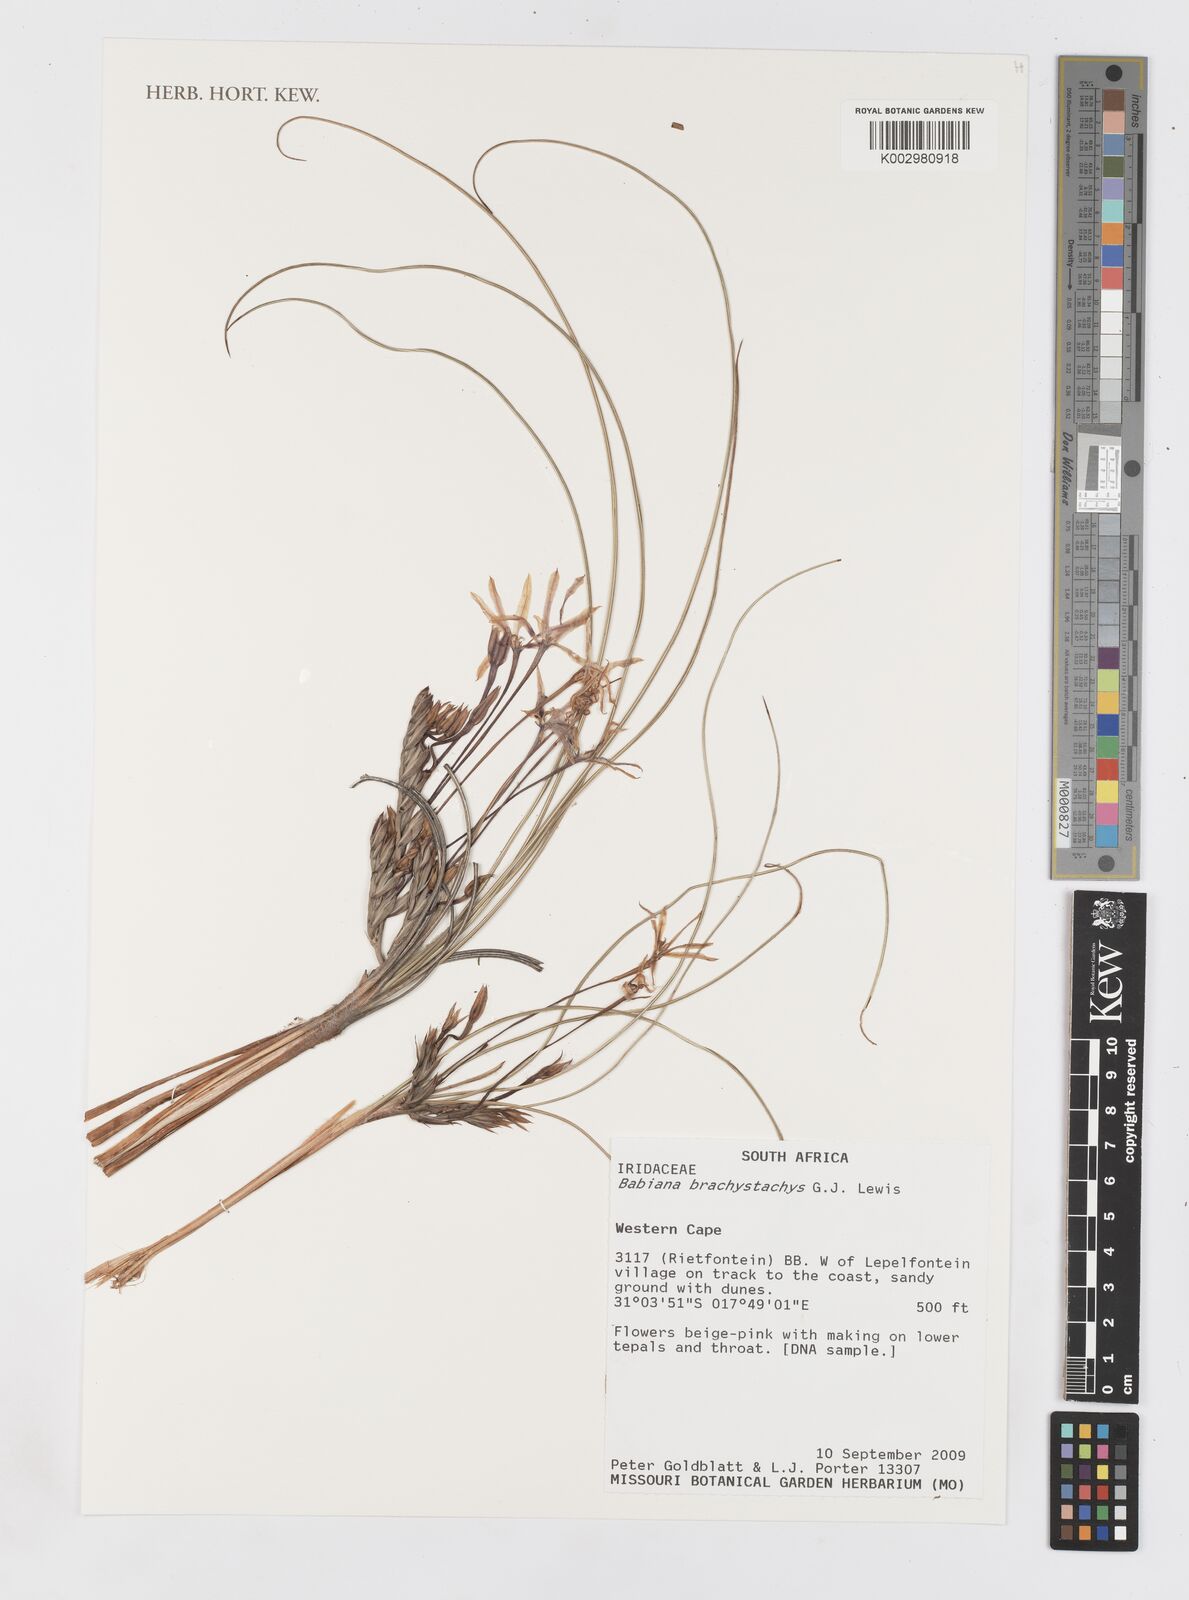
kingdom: Plantae
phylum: Tracheophyta
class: Liliopsida
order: Asparagales
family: Iridaceae
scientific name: Iridaceae
